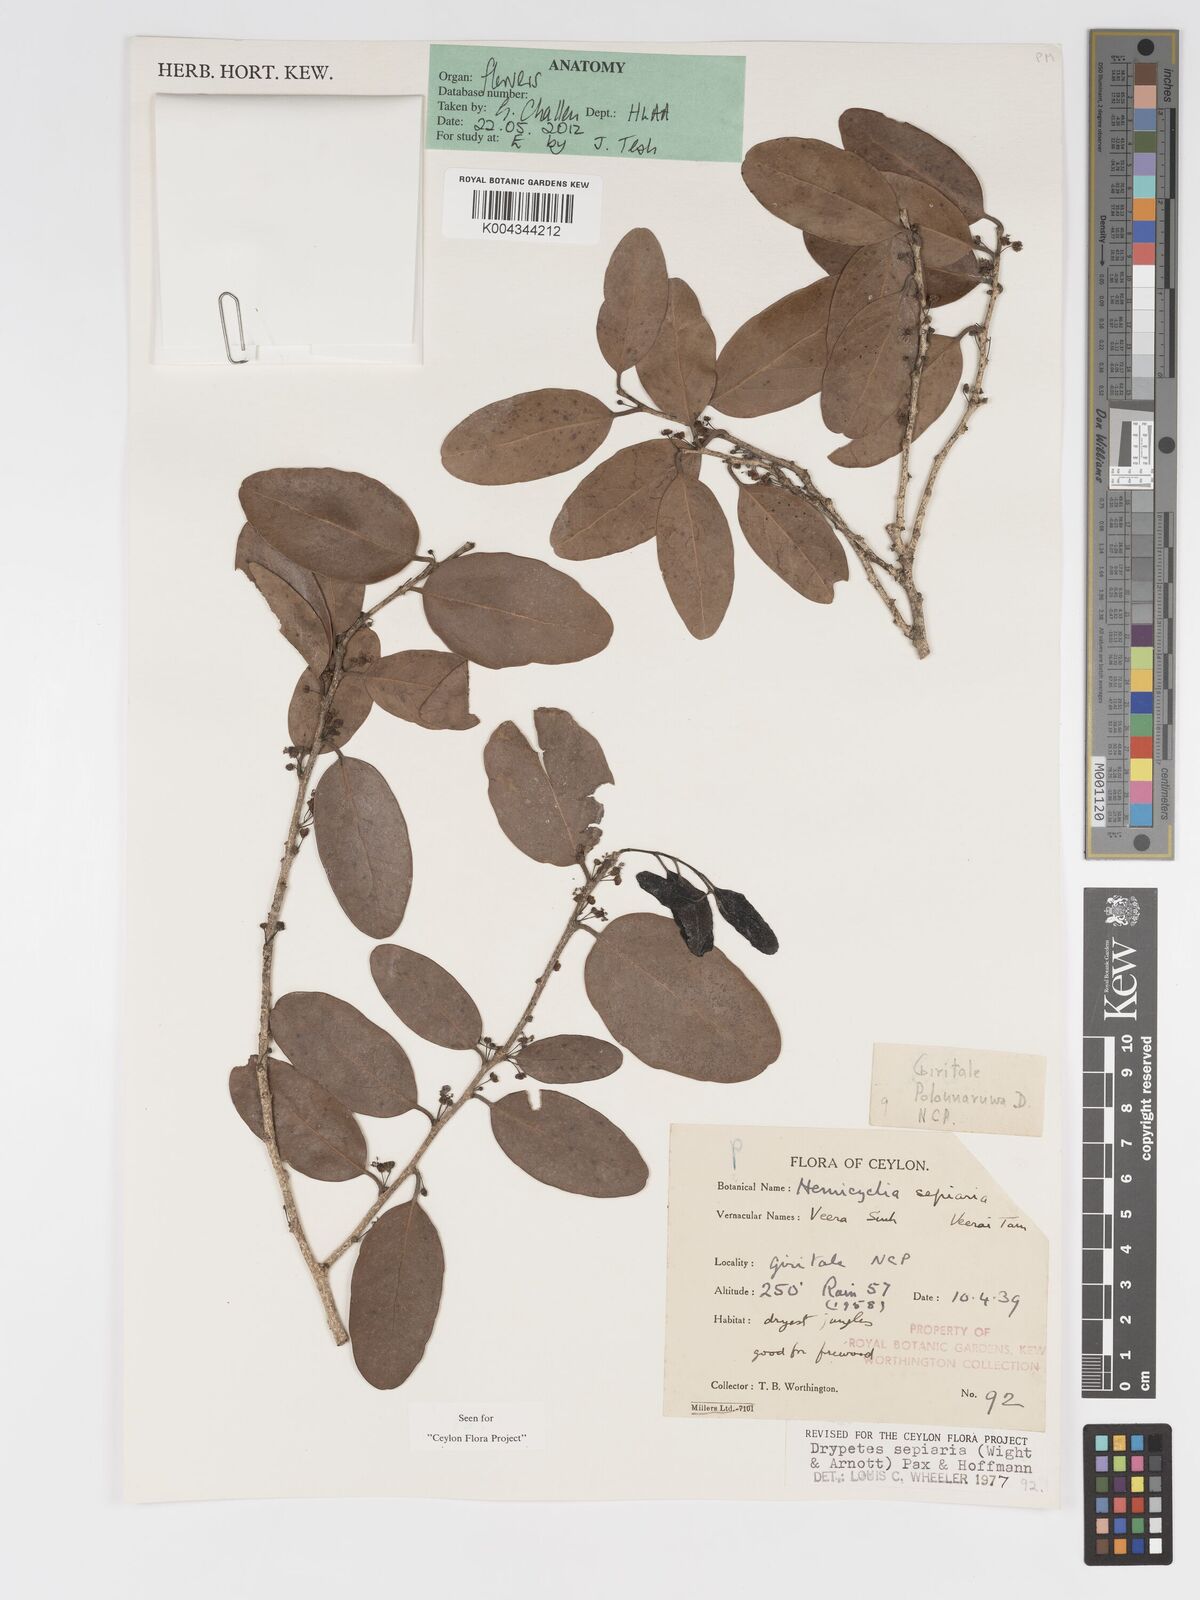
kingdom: Plantae
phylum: Tracheophyta
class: Magnoliopsida
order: Malpighiales
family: Putranjivaceae
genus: Drypetes
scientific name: Drypetes sepiaria
